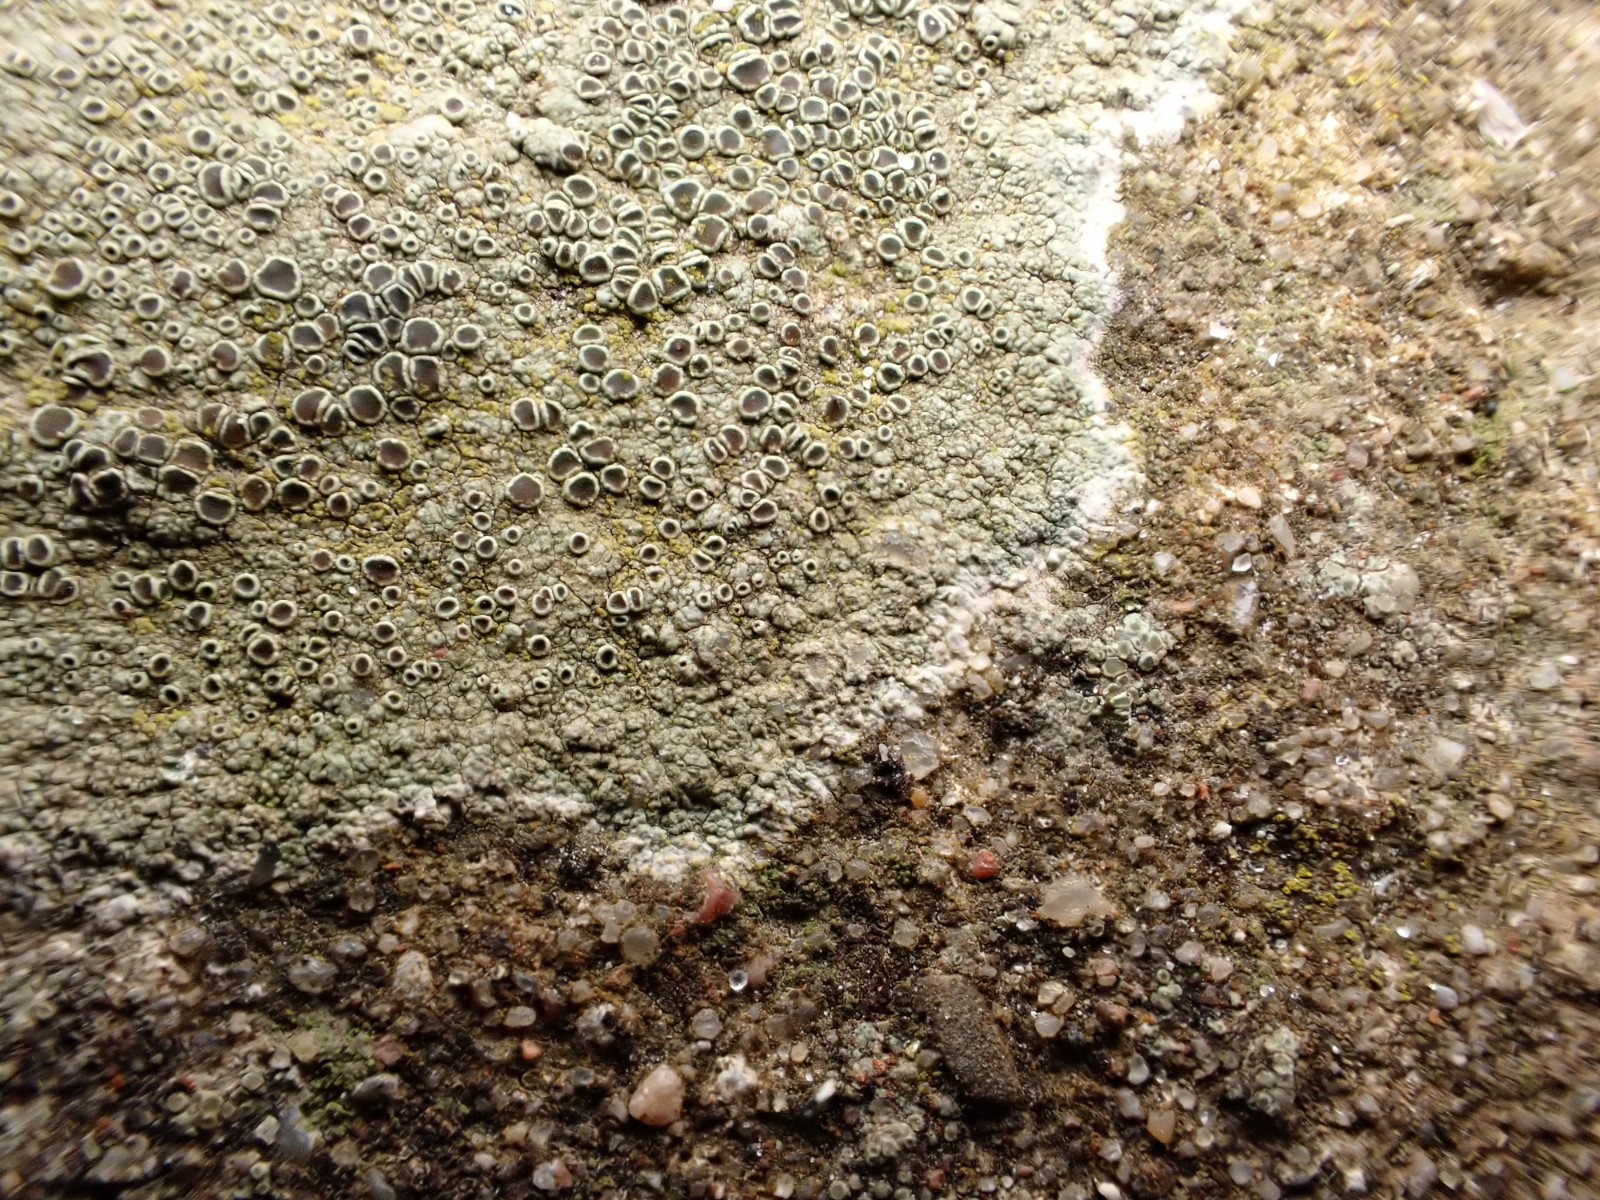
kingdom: Fungi
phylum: Ascomycota
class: Lecanoromycetes
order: Lecanorales
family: Lecanoraceae
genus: Lecanora
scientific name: Lecanora campestris
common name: mur-kantskivelav
